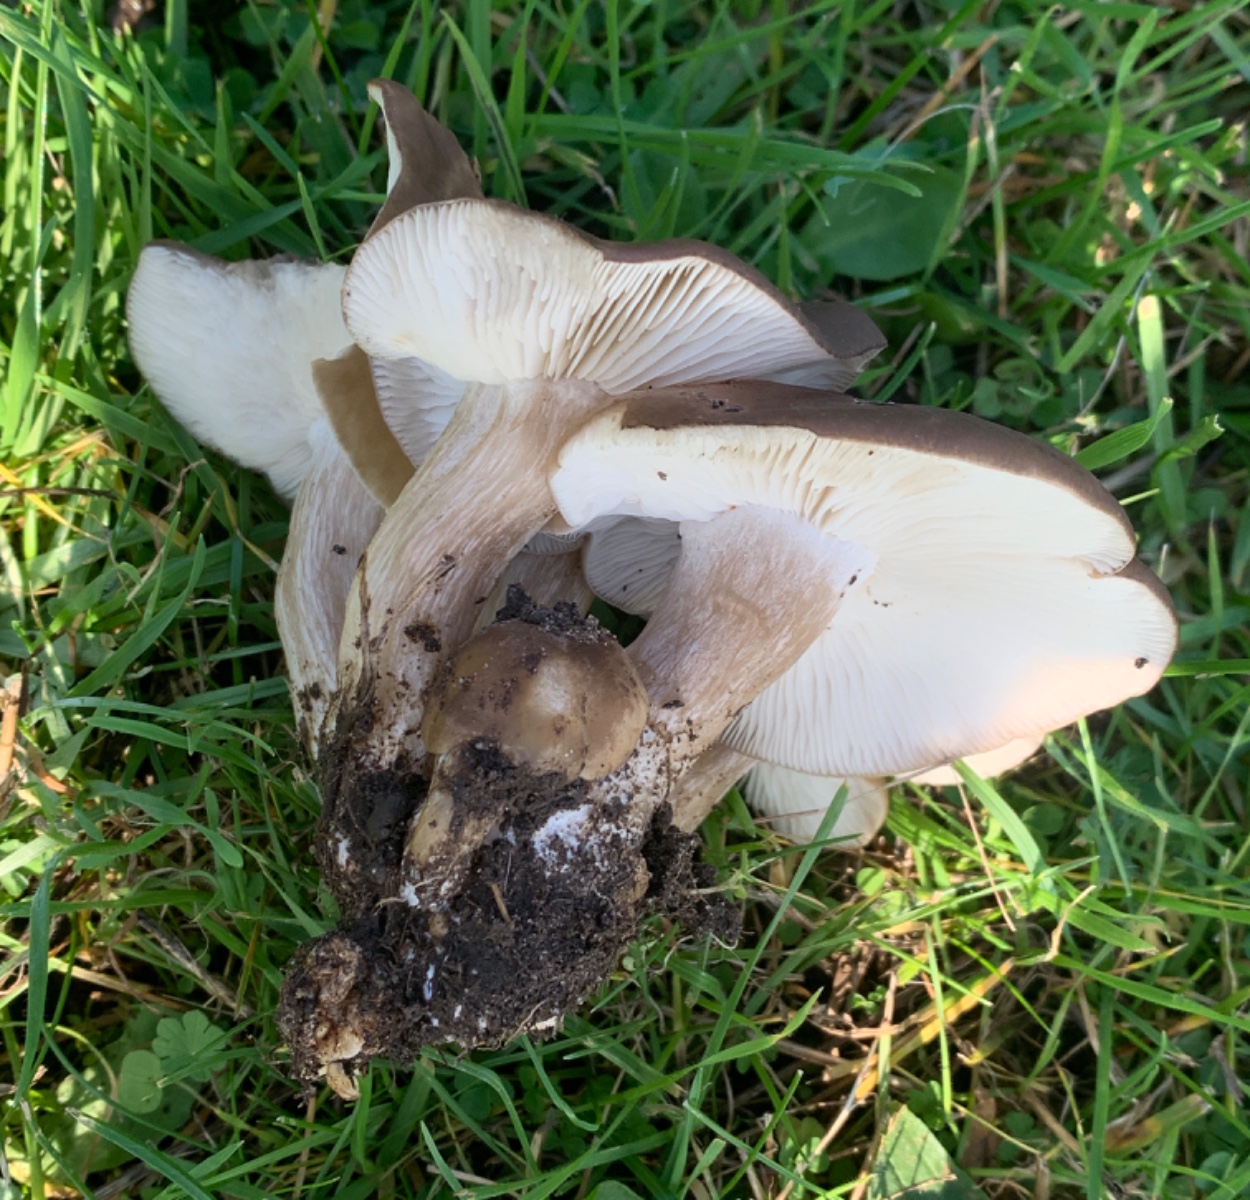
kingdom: Fungi
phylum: Basidiomycota
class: Agaricomycetes
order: Agaricales
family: Lyophyllaceae
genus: Lyophyllum
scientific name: Lyophyllum decastes
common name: røggrå gråblad
